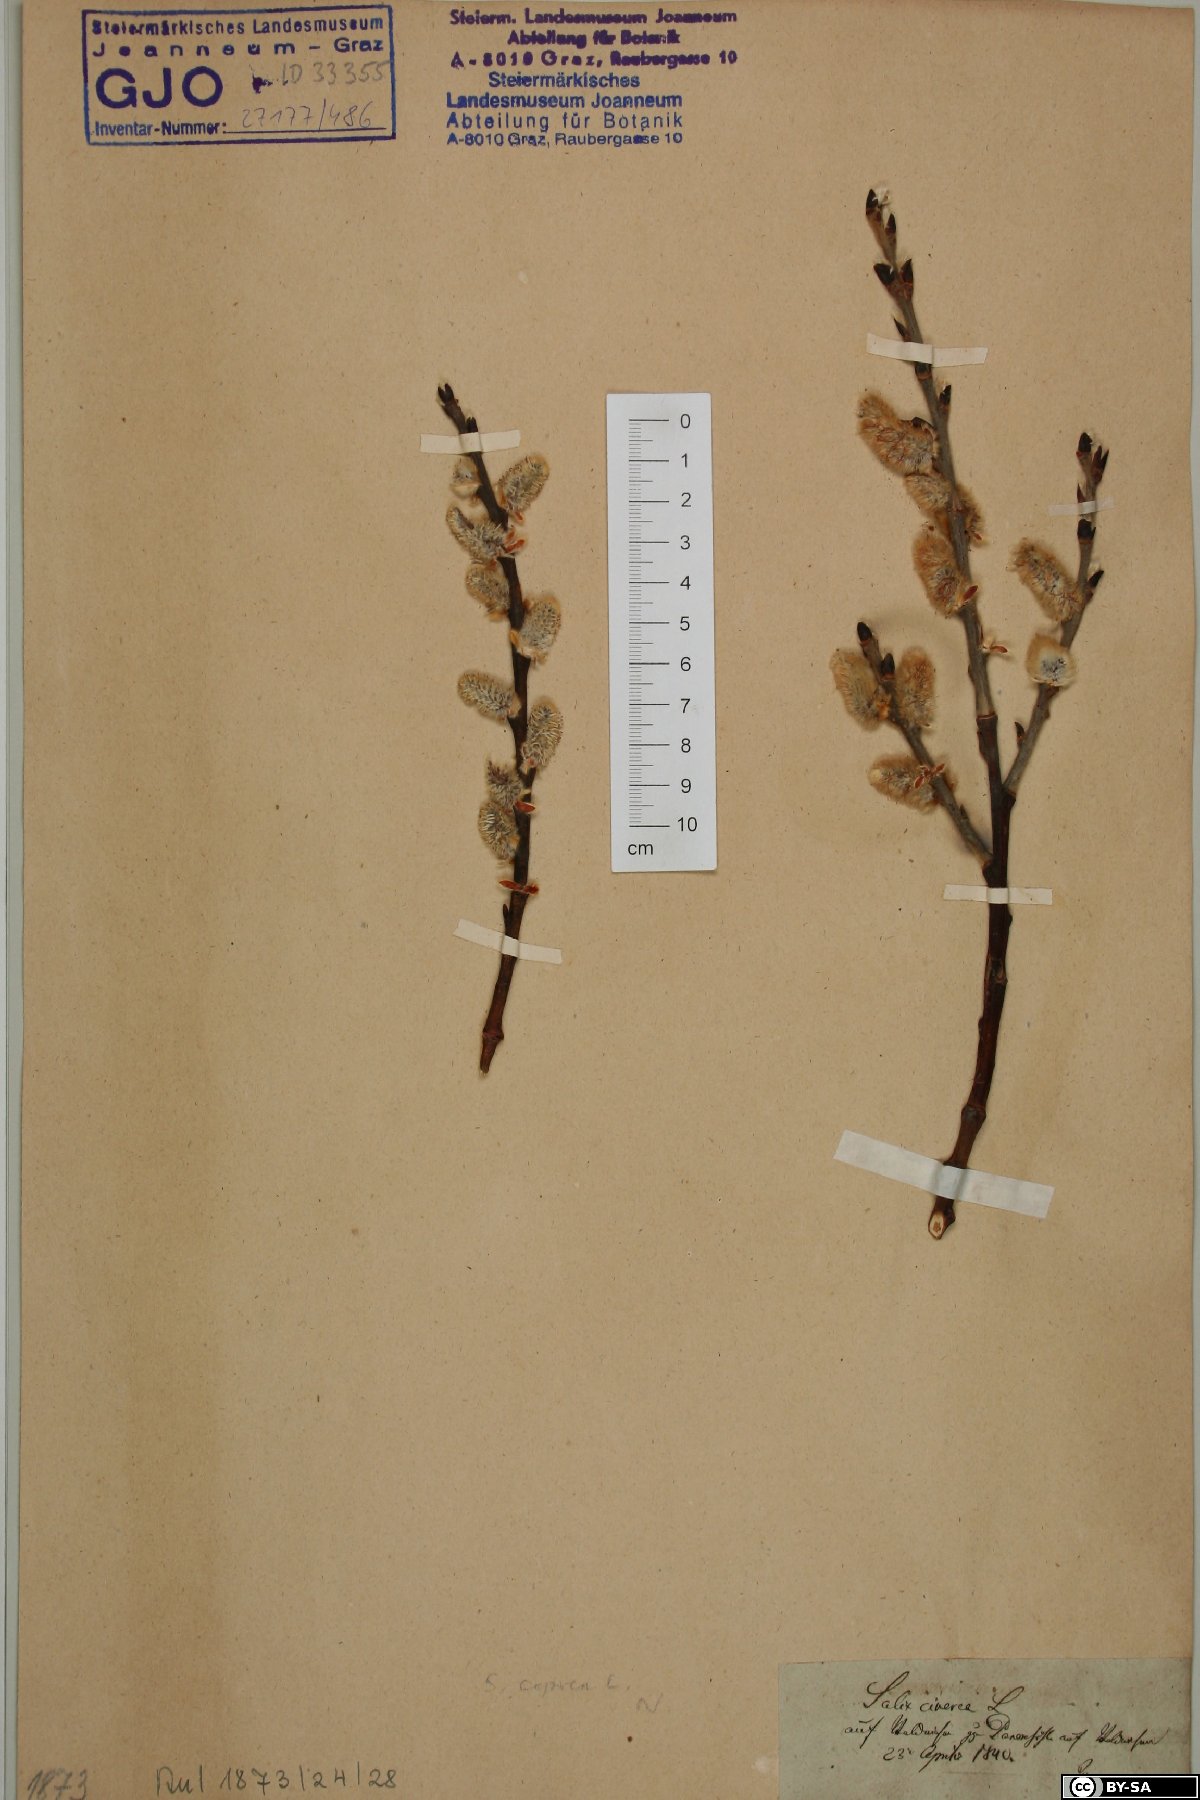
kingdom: Plantae
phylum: Tracheophyta
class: Magnoliopsida
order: Malpighiales
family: Salicaceae
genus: Salix
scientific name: Salix caprea
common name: Goat willow
